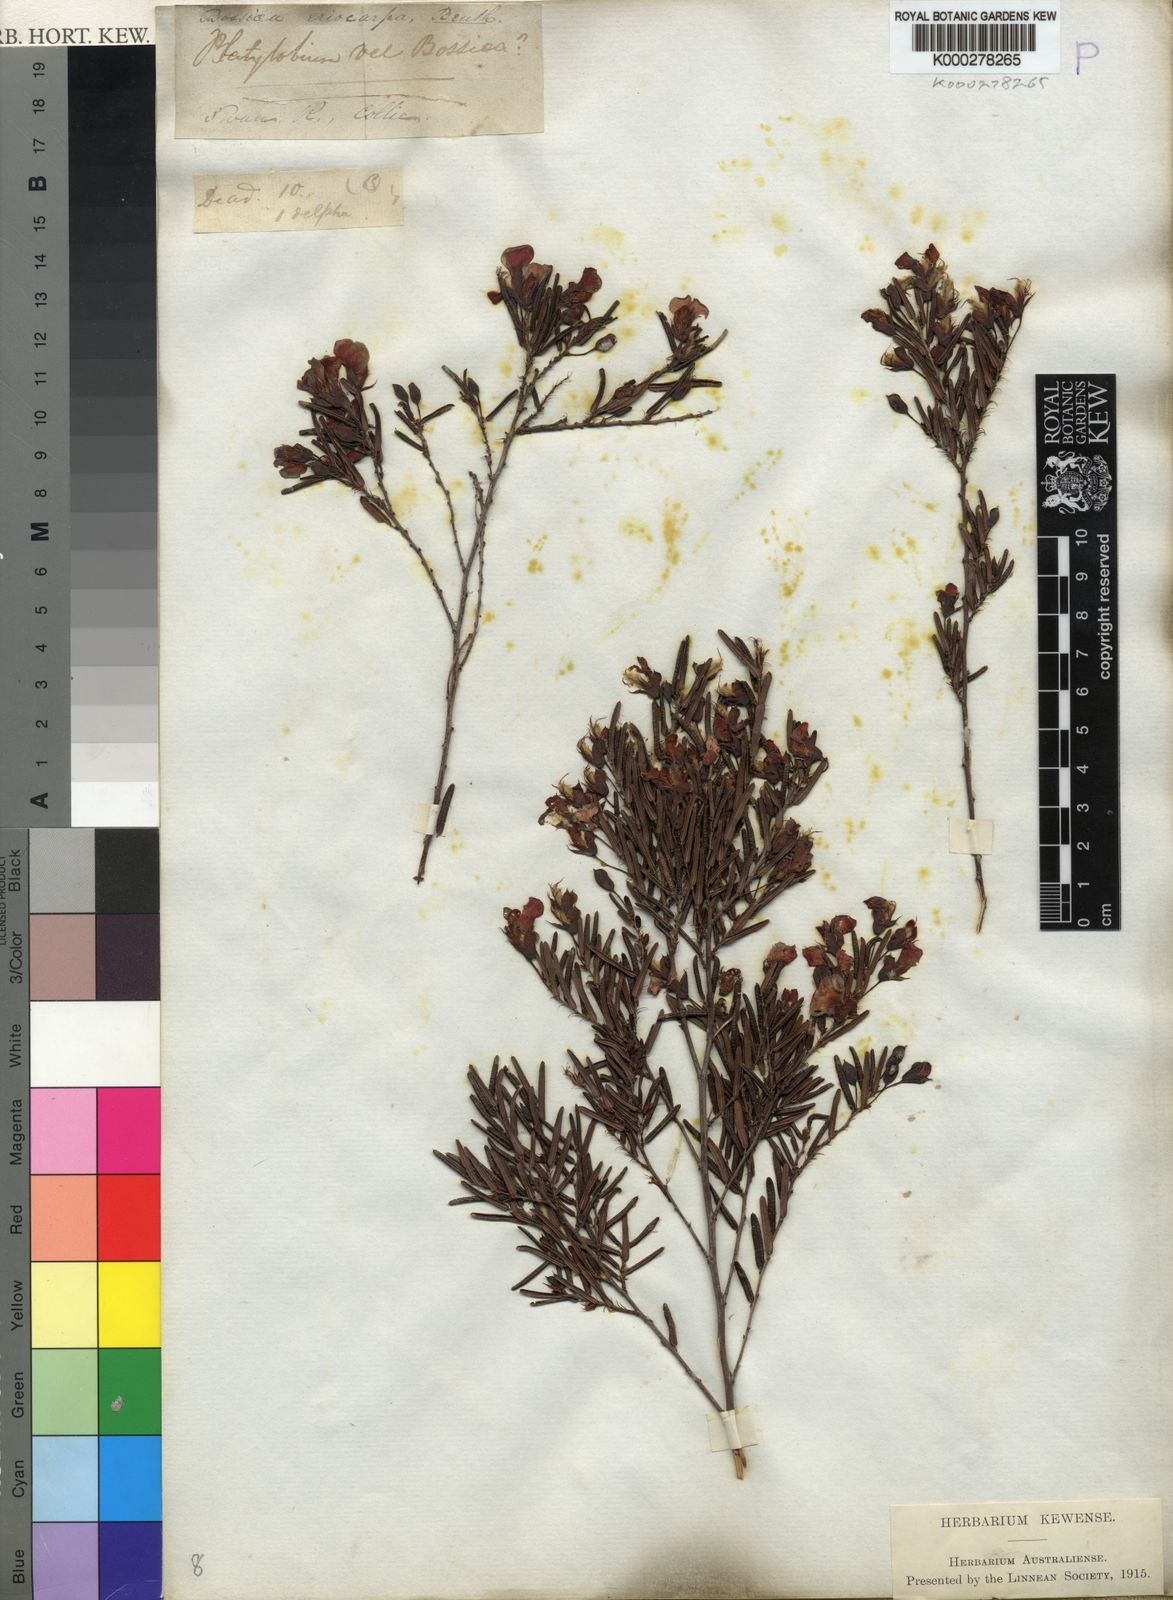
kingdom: Plantae
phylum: Tracheophyta
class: Magnoliopsida
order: Fabales
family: Fabaceae
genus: Bossiaea
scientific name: Bossiaea eriocarpa
